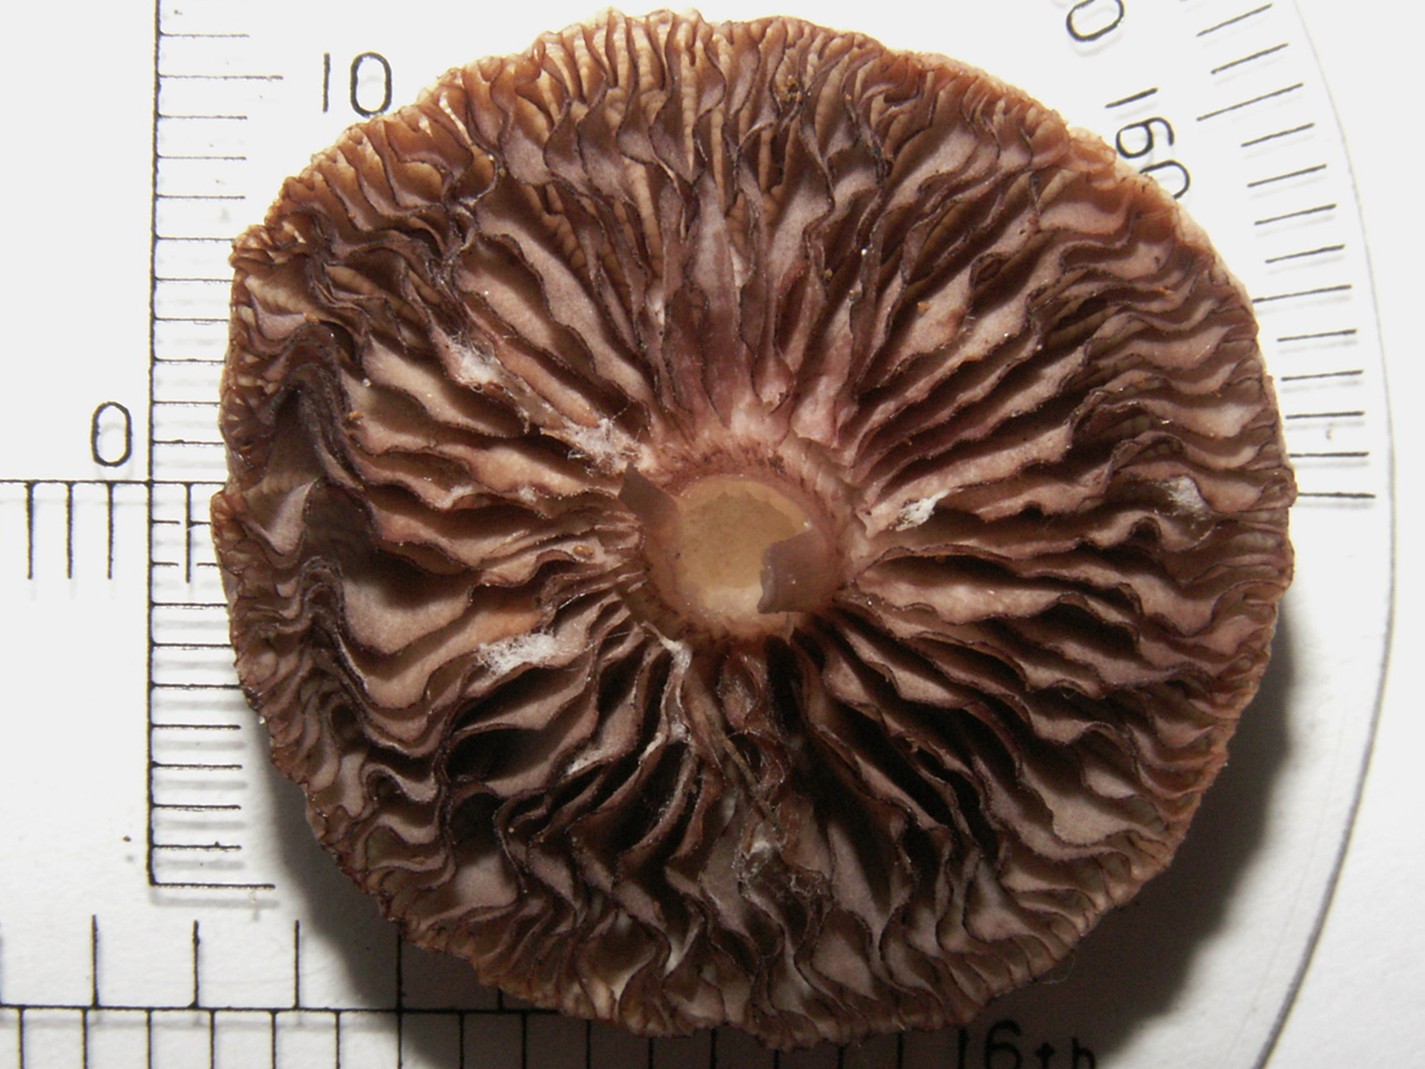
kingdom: Fungi
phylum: Basidiomycota
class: Agaricomycetes
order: Agaricales
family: Mycenaceae
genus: Mycena
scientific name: Mycena pelianthina
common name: mørkbladet huesvamp
